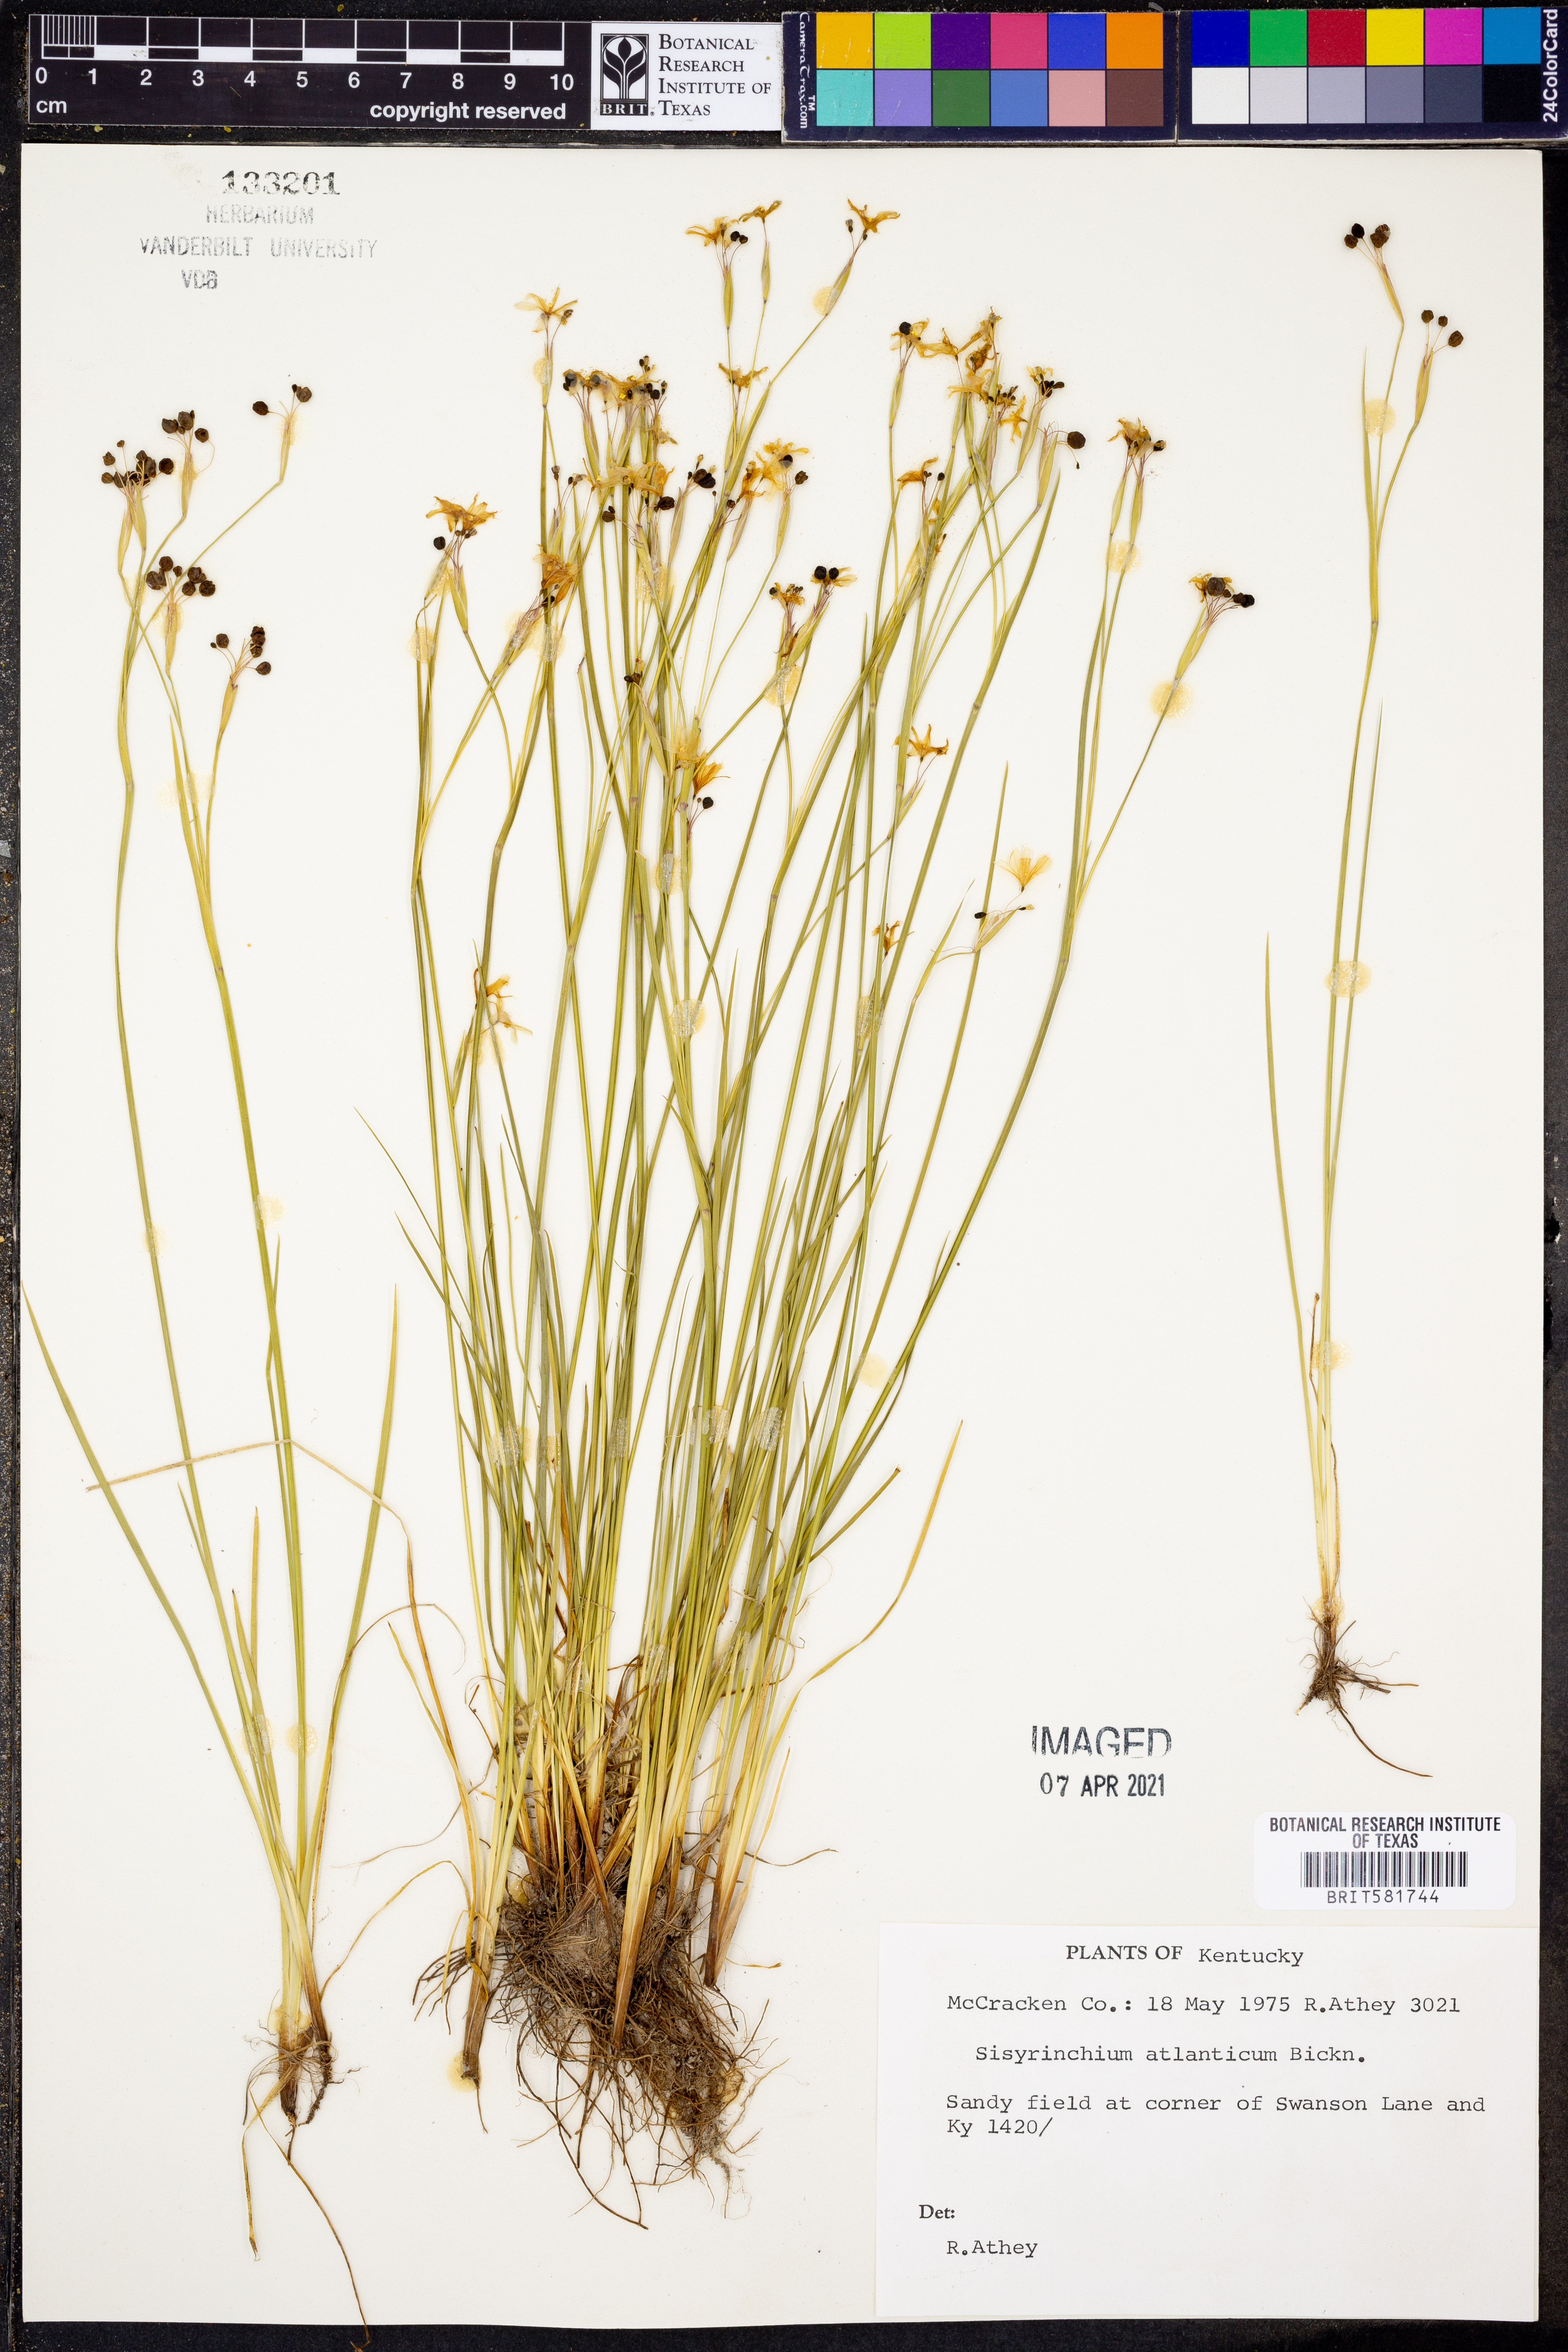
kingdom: Plantae
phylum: Tracheophyta
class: Liliopsida
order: Asparagales
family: Iridaceae
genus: Sisyrinchium
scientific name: Sisyrinchium atlanticum
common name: Eastern blue-eyed-grass
